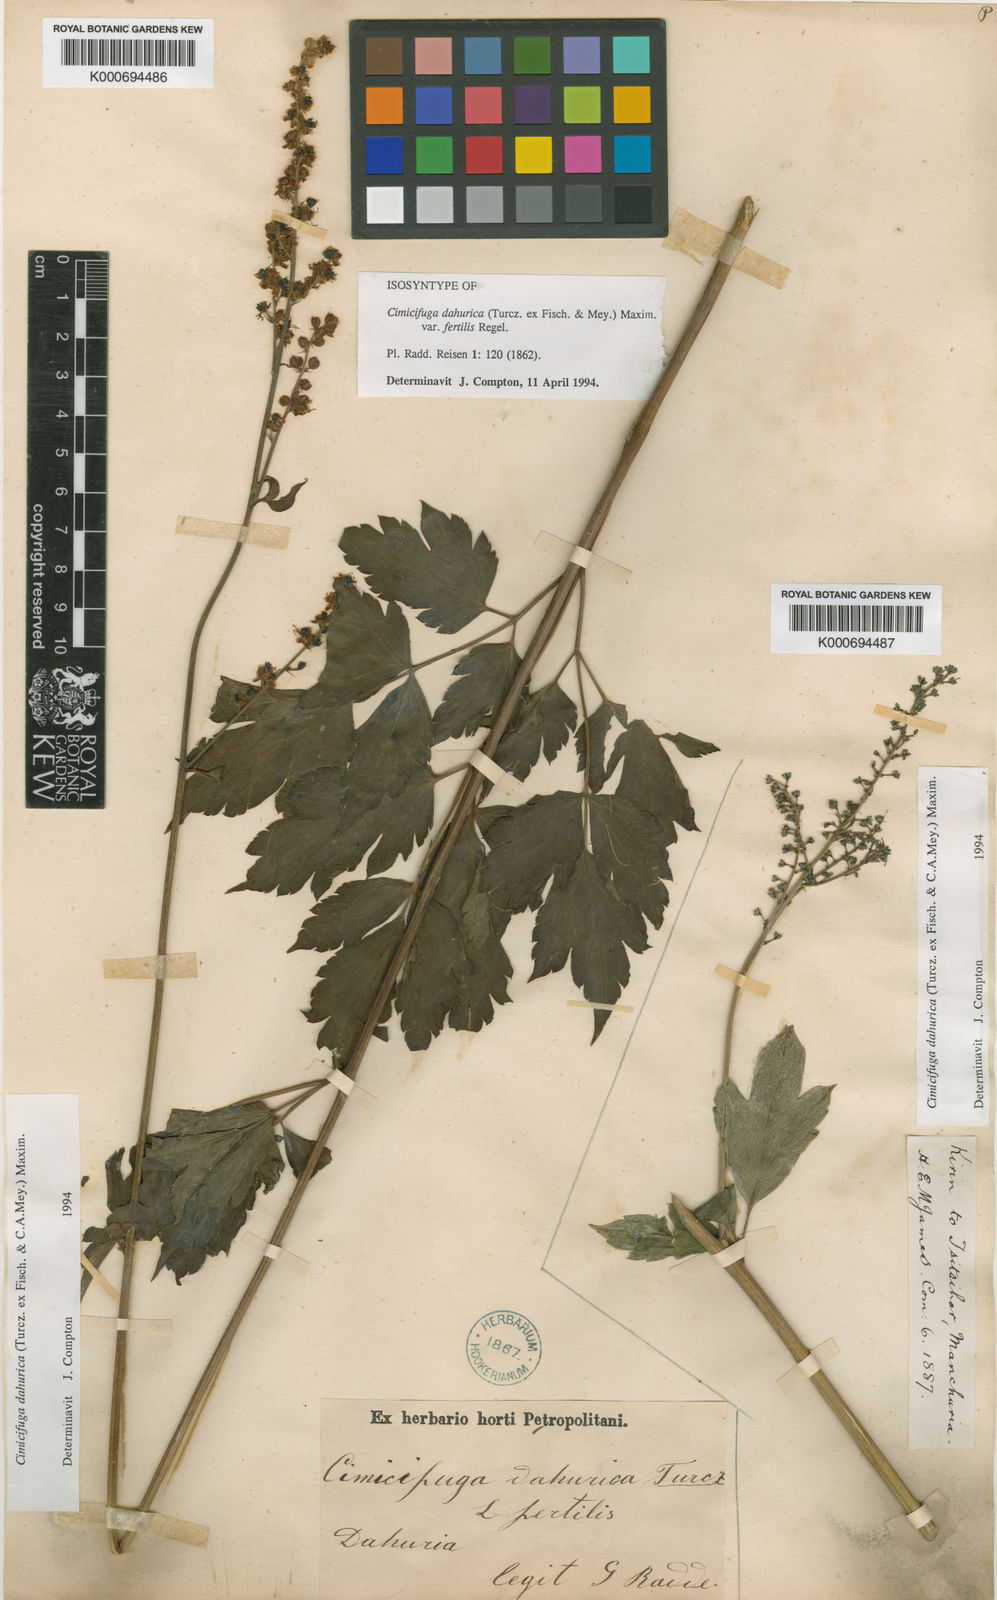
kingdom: Plantae
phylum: Tracheophyta
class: Magnoliopsida
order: Ranunculales
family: Ranunculaceae
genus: Actaea
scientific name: Actaea dahurica
